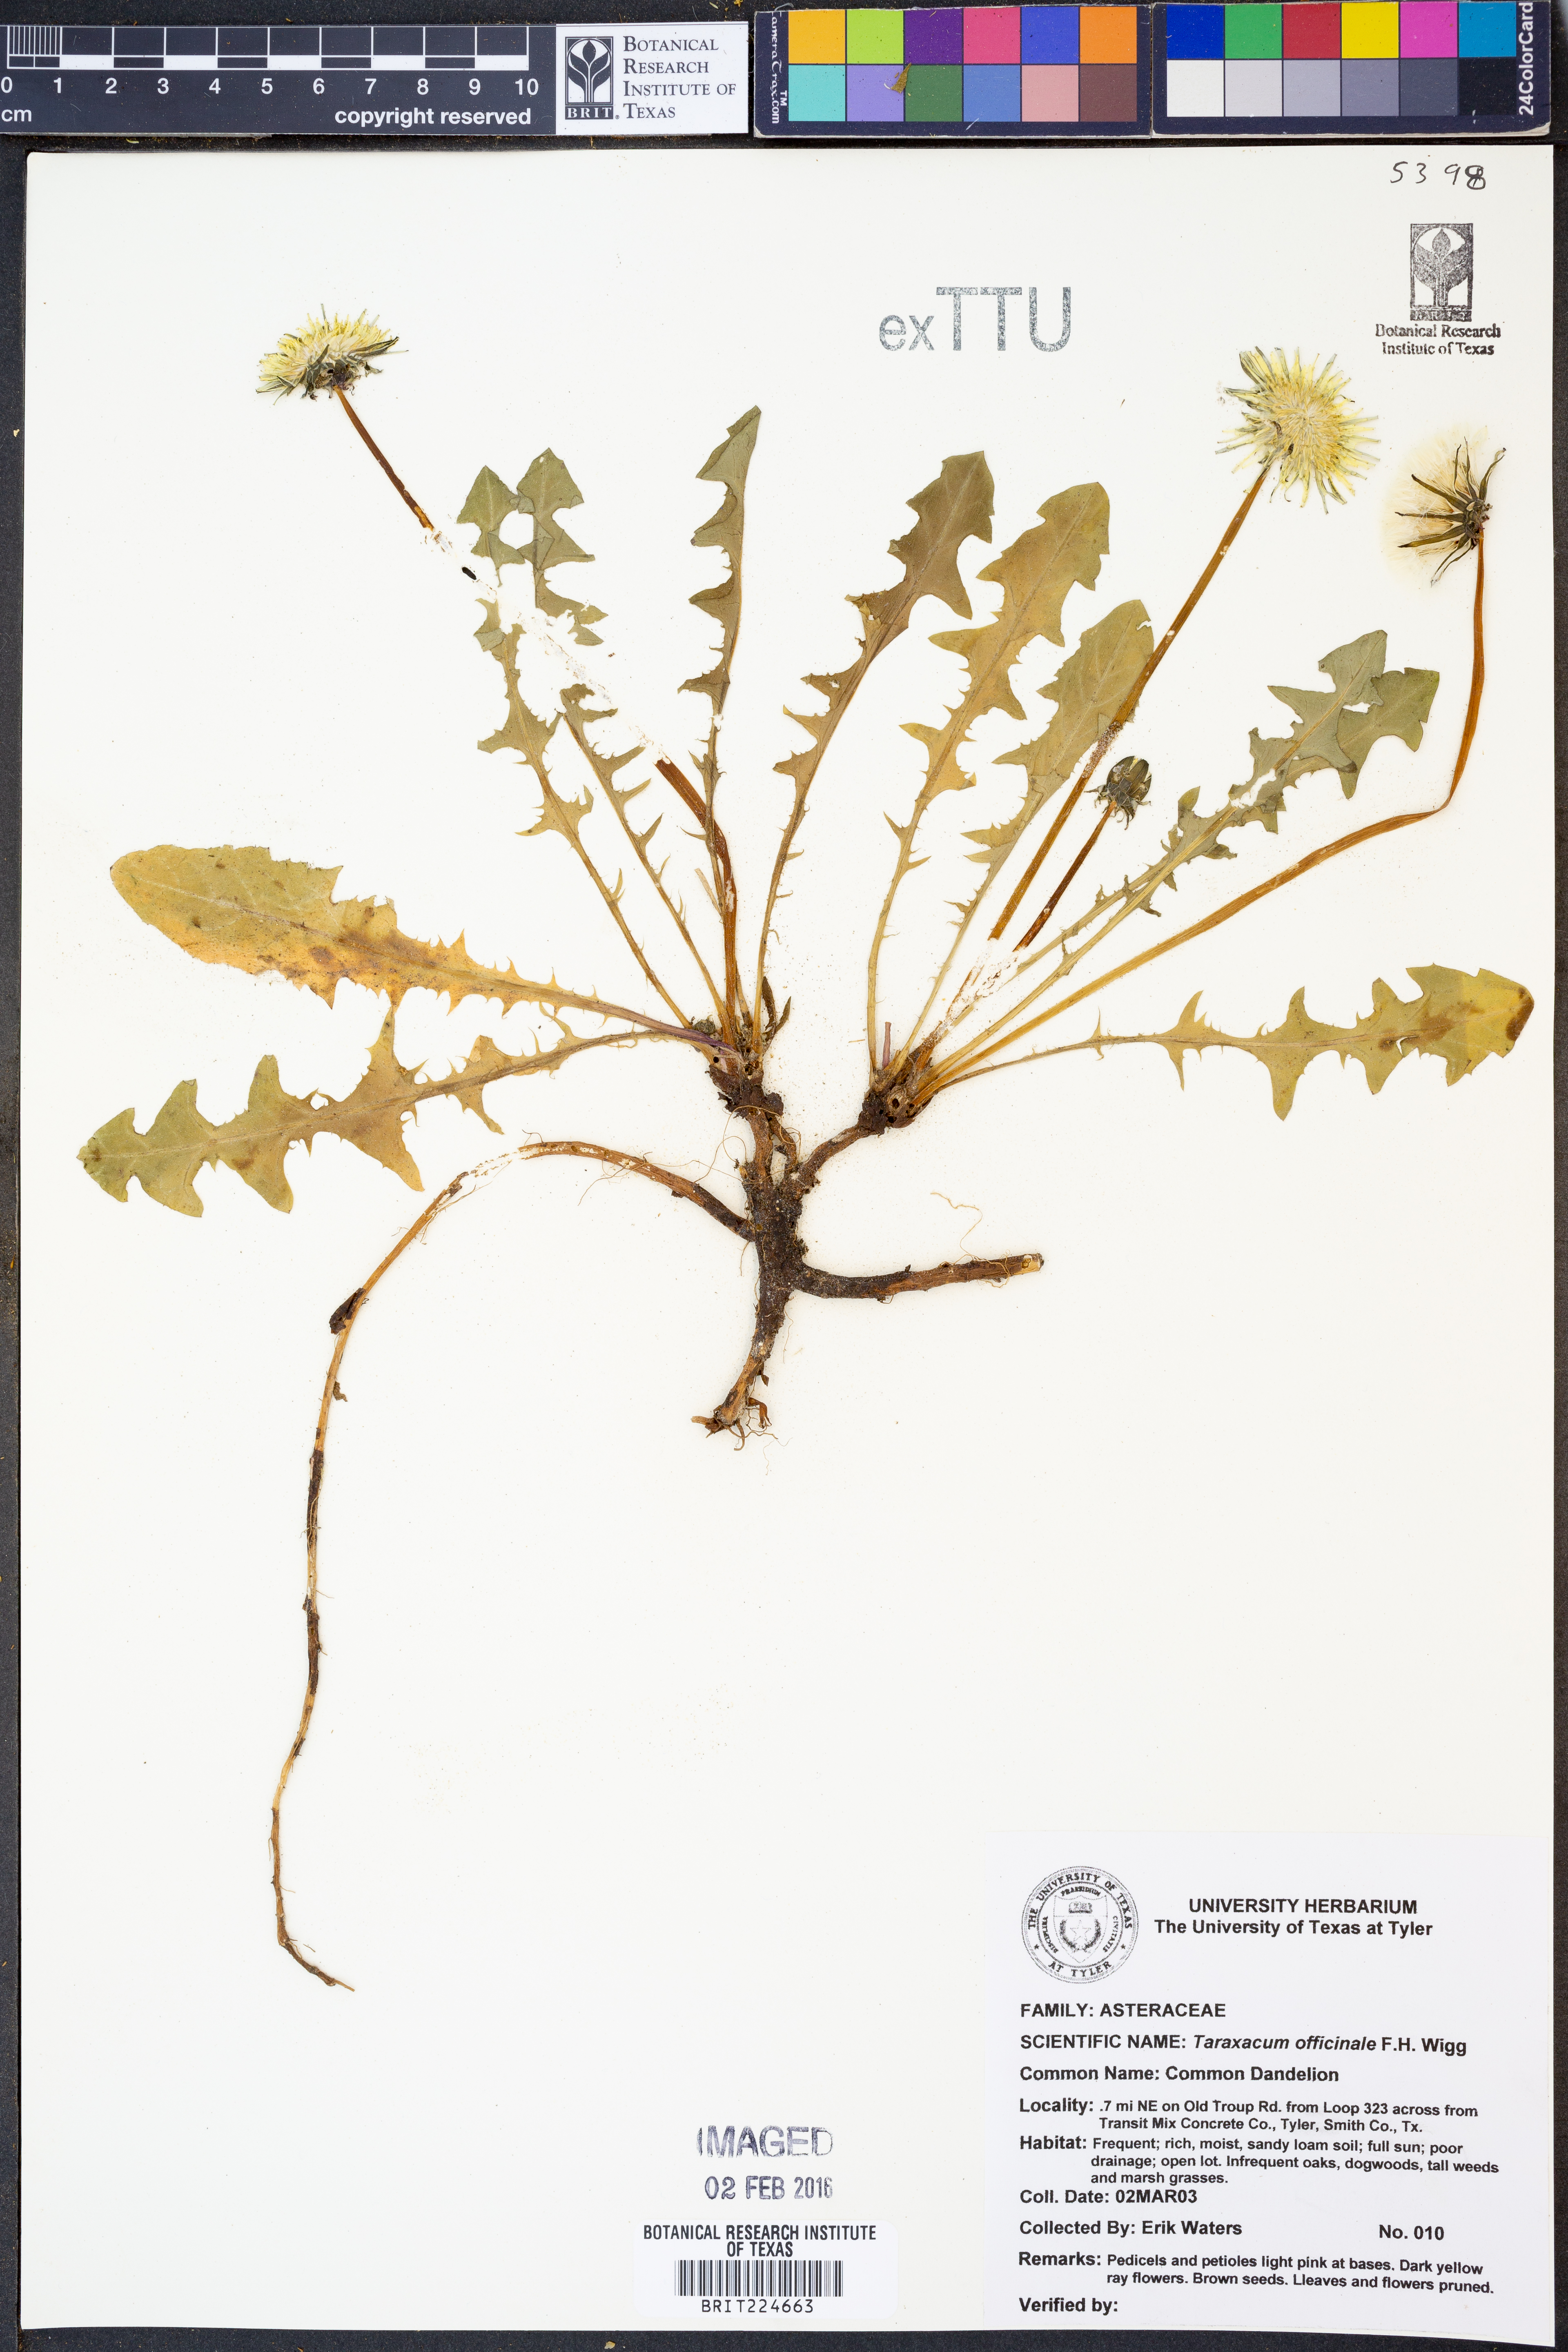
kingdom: Plantae
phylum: Tracheophyta
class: Magnoliopsida
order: Asterales
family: Asteraceae
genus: Taraxacum
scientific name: Taraxacum officinale
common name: Common dandelion
